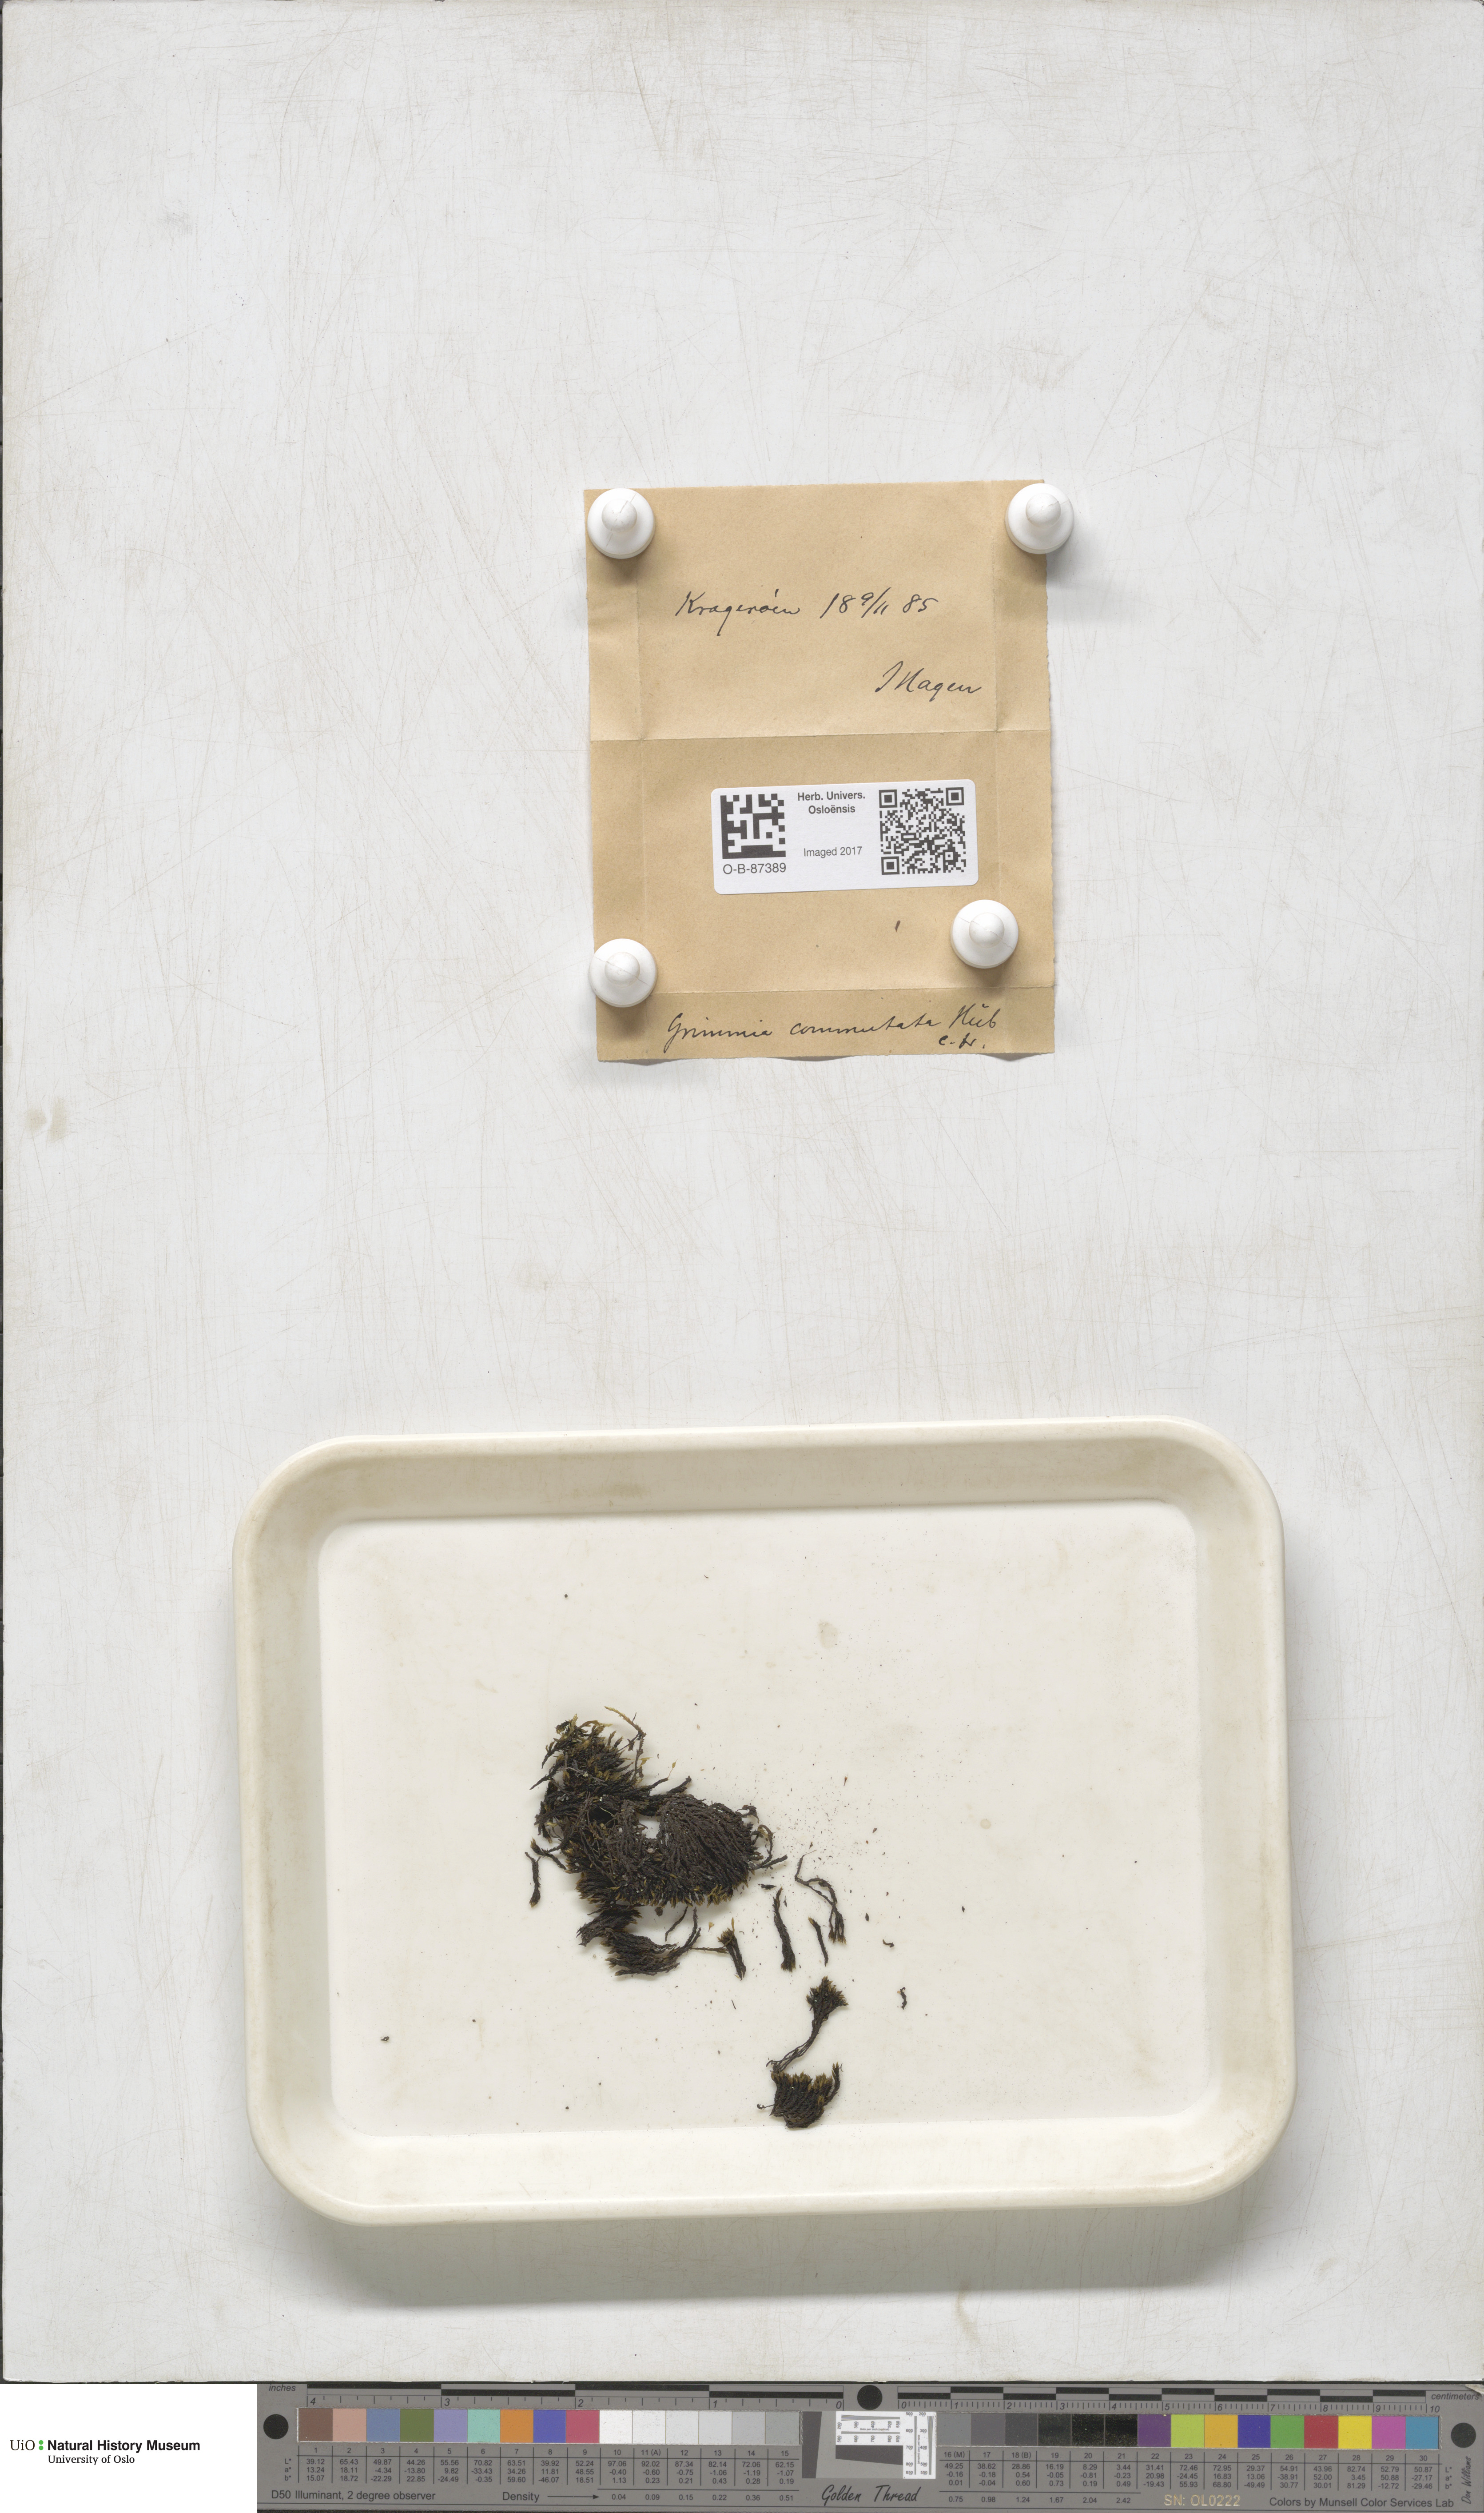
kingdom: Plantae
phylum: Bryophyta
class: Bryopsida
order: Grimmiales
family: Grimmiaceae
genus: Grimmia
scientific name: Grimmia ovalis
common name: Oval grimmia
